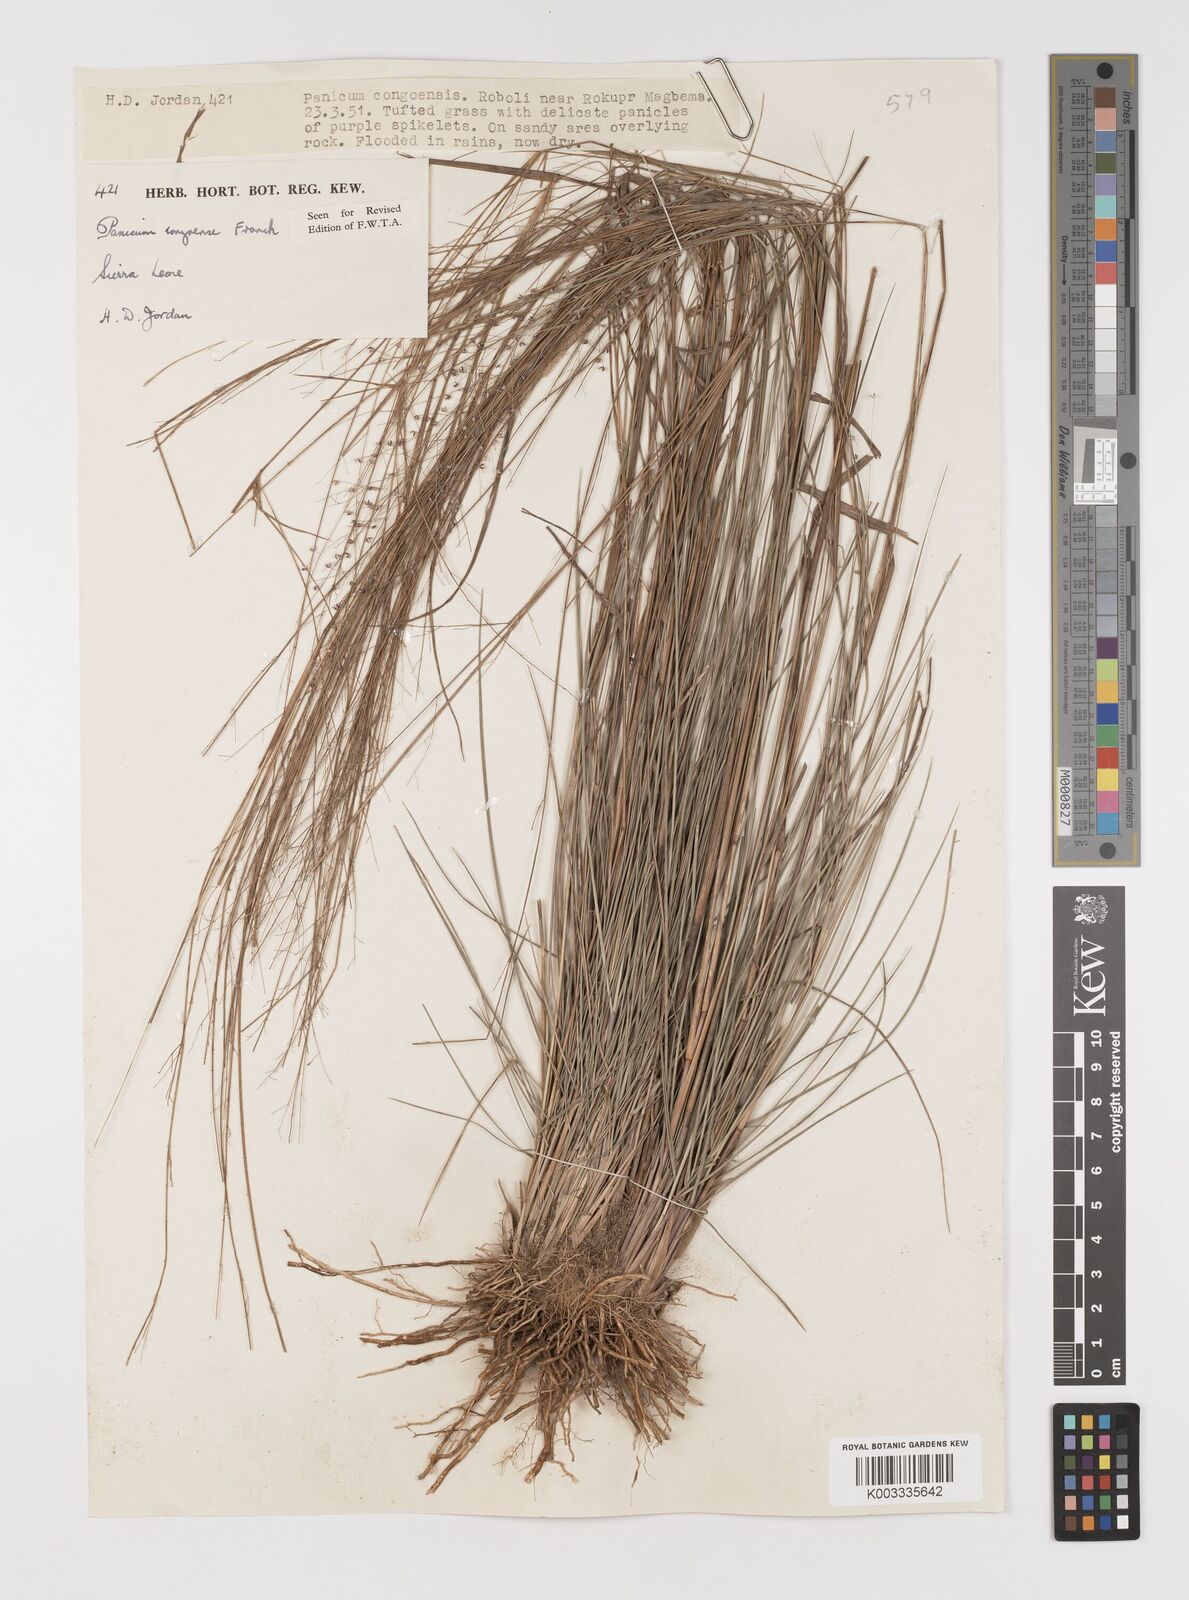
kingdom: Plantae
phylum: Tracheophyta
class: Liliopsida
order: Poales
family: Poaceae
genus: Panicum
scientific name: Panicum congoense
